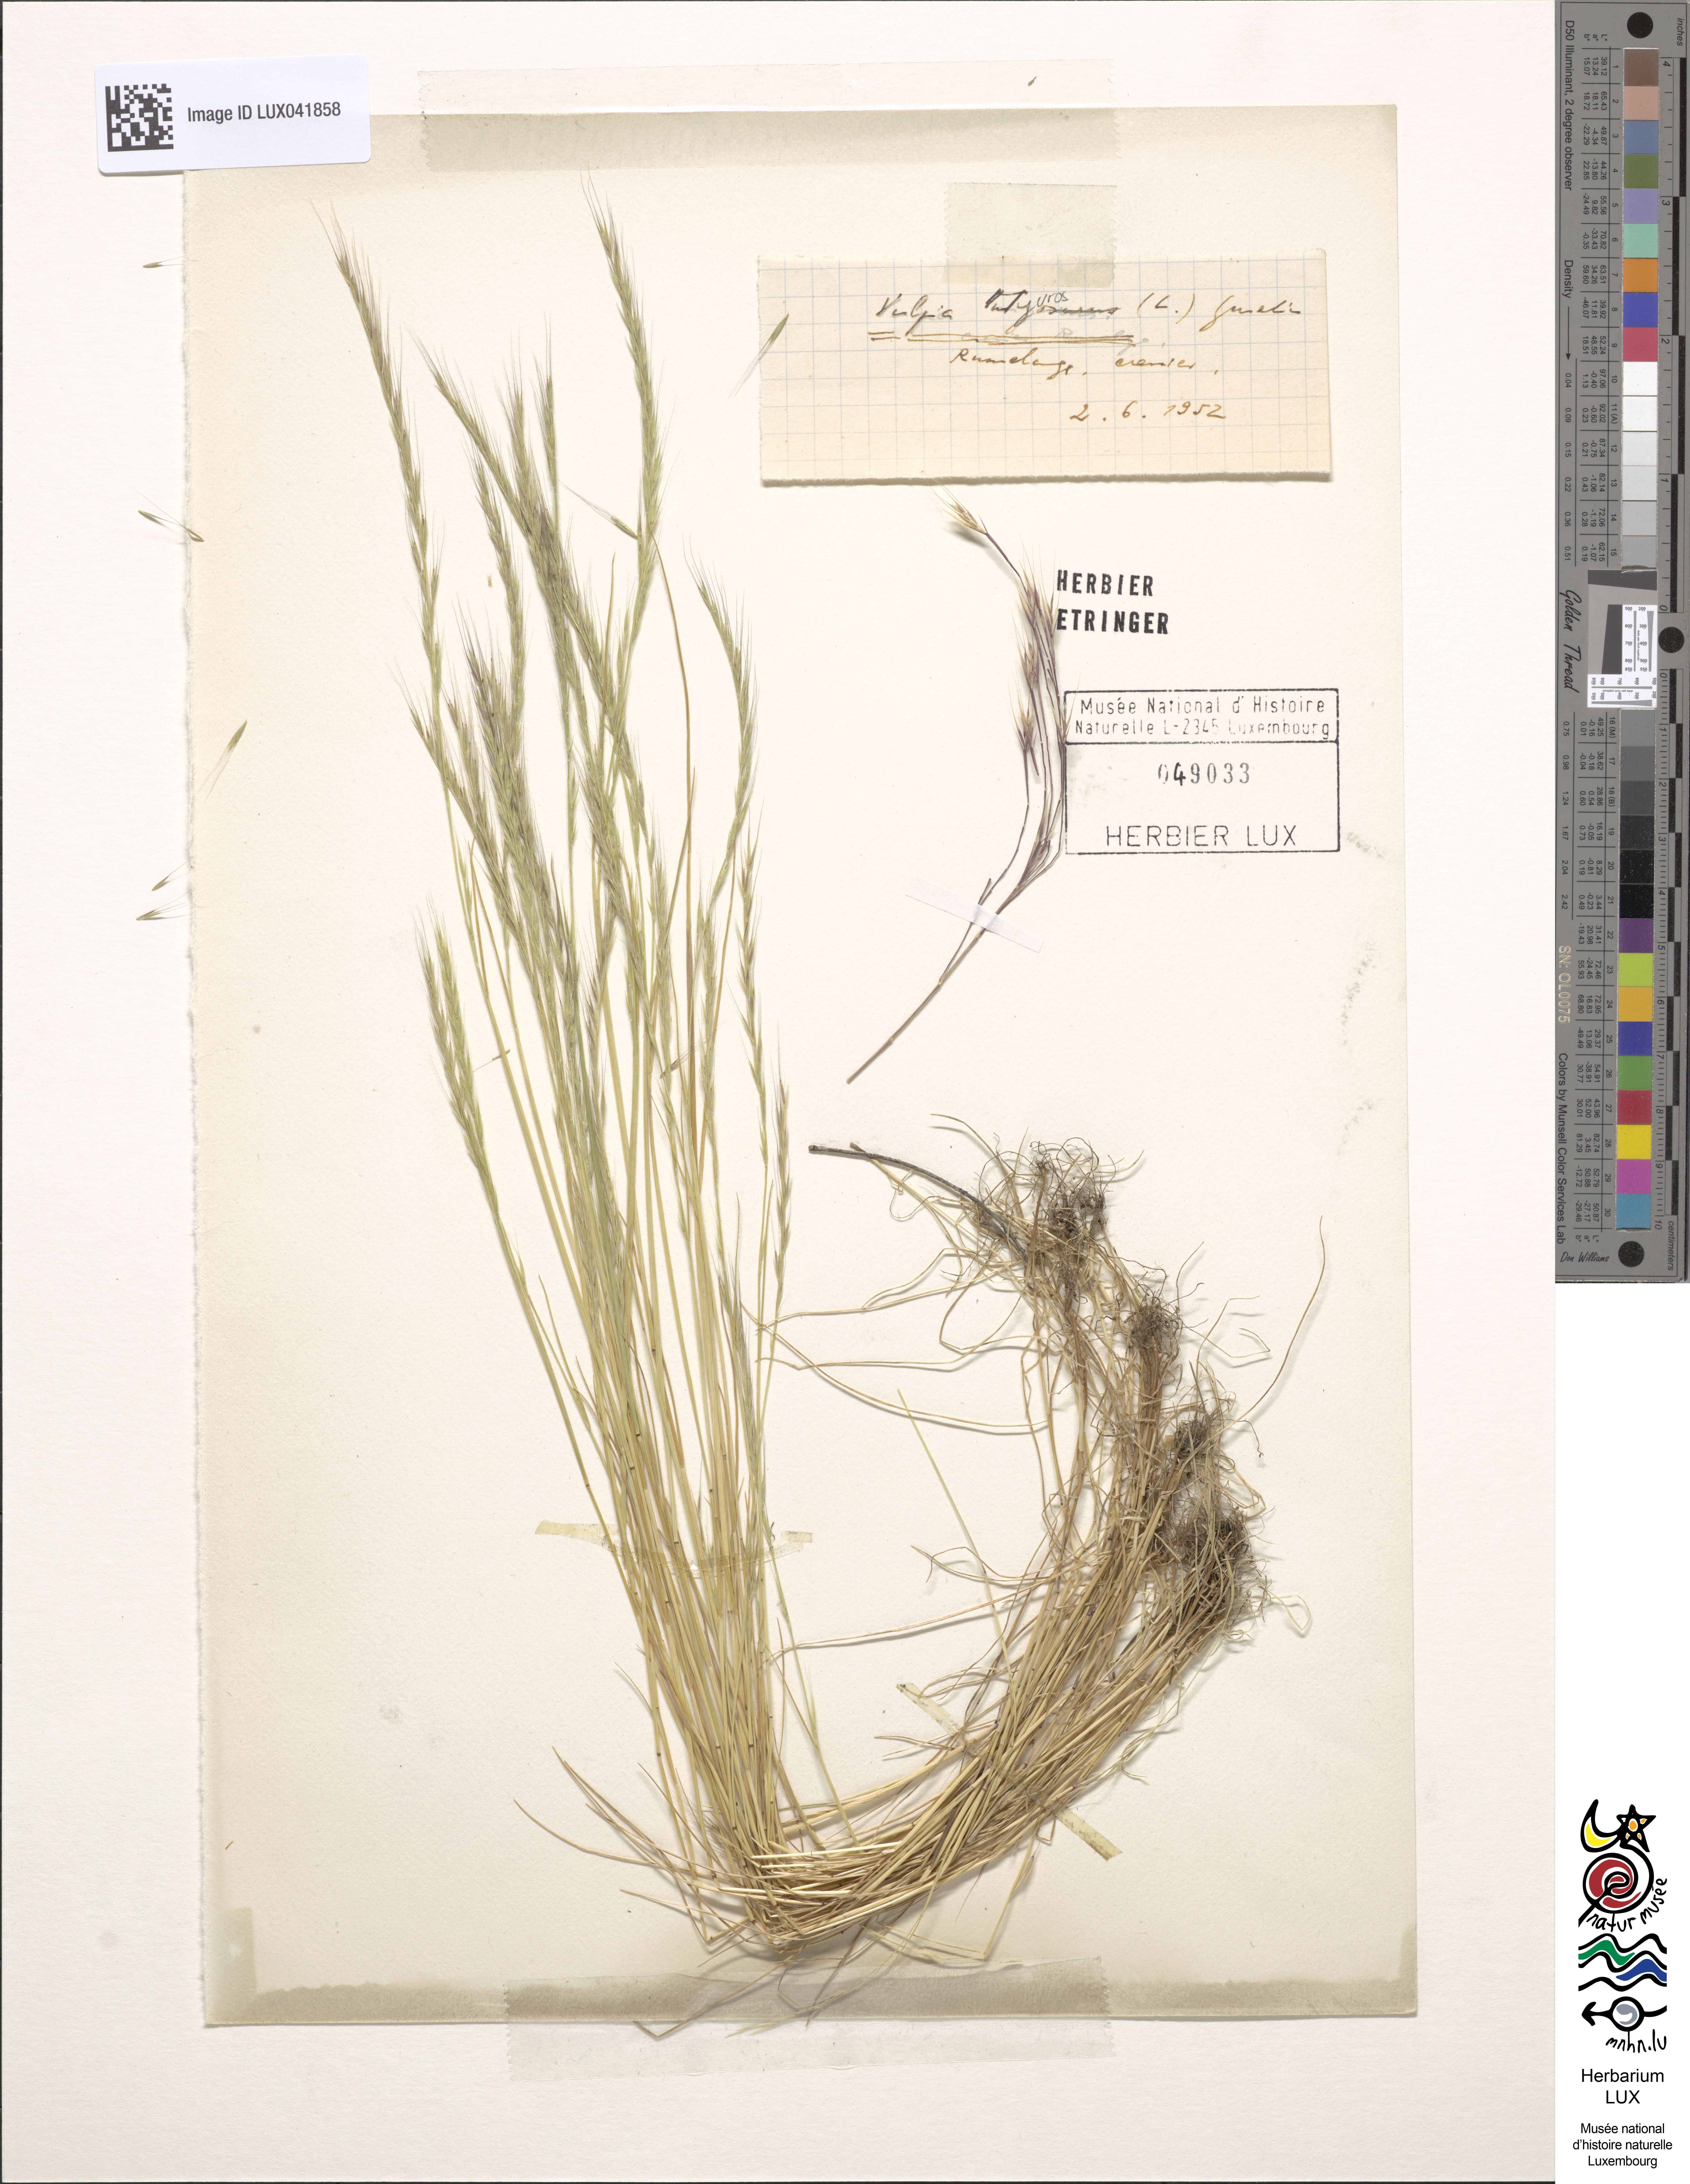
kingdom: Plantae
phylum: Tracheophyta
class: Liliopsida
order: Poales
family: Poaceae
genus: Festuca
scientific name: Festuca myuros
